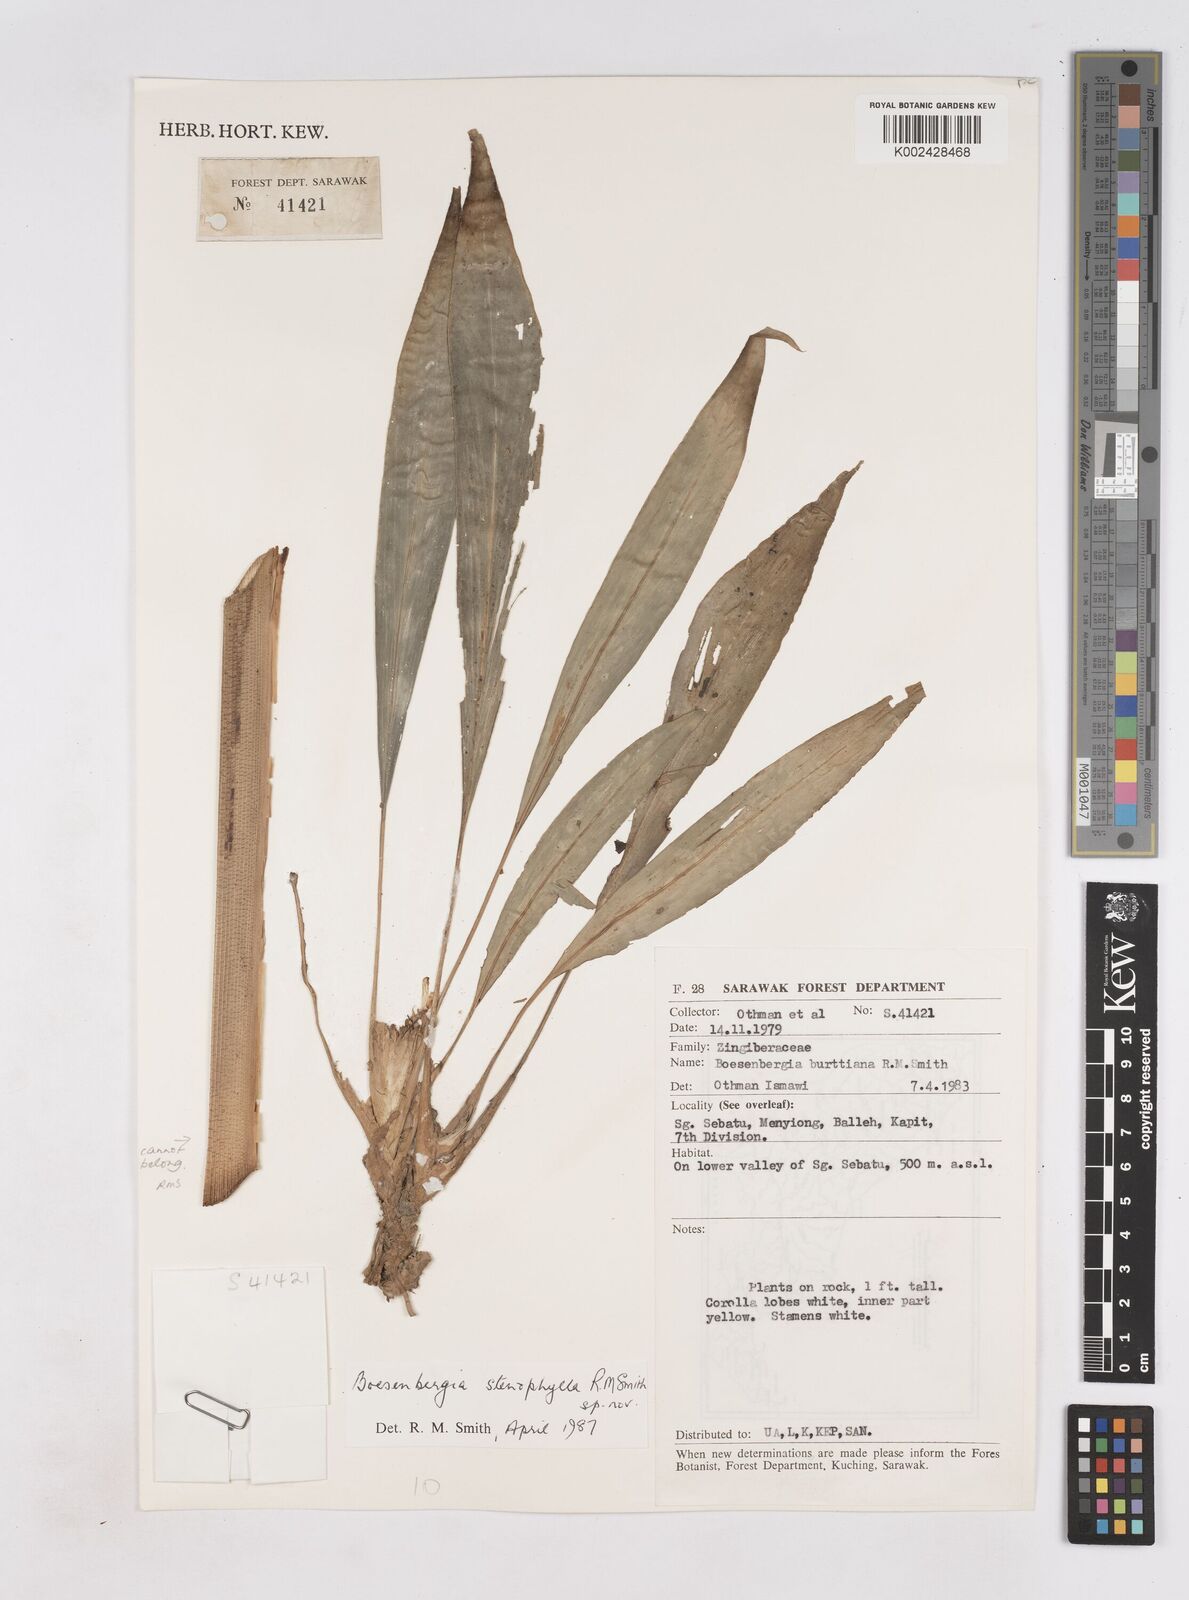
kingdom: Plantae
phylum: Tracheophyta
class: Liliopsida
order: Zingiberales
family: Zingiberaceae
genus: Boesenbergia
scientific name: Boesenbergia stenophylla
